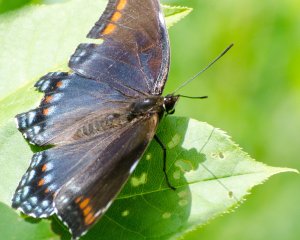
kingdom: Animalia
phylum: Arthropoda
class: Insecta
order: Lepidoptera
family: Nymphalidae
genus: Limenitis
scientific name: Limenitis astyanax
